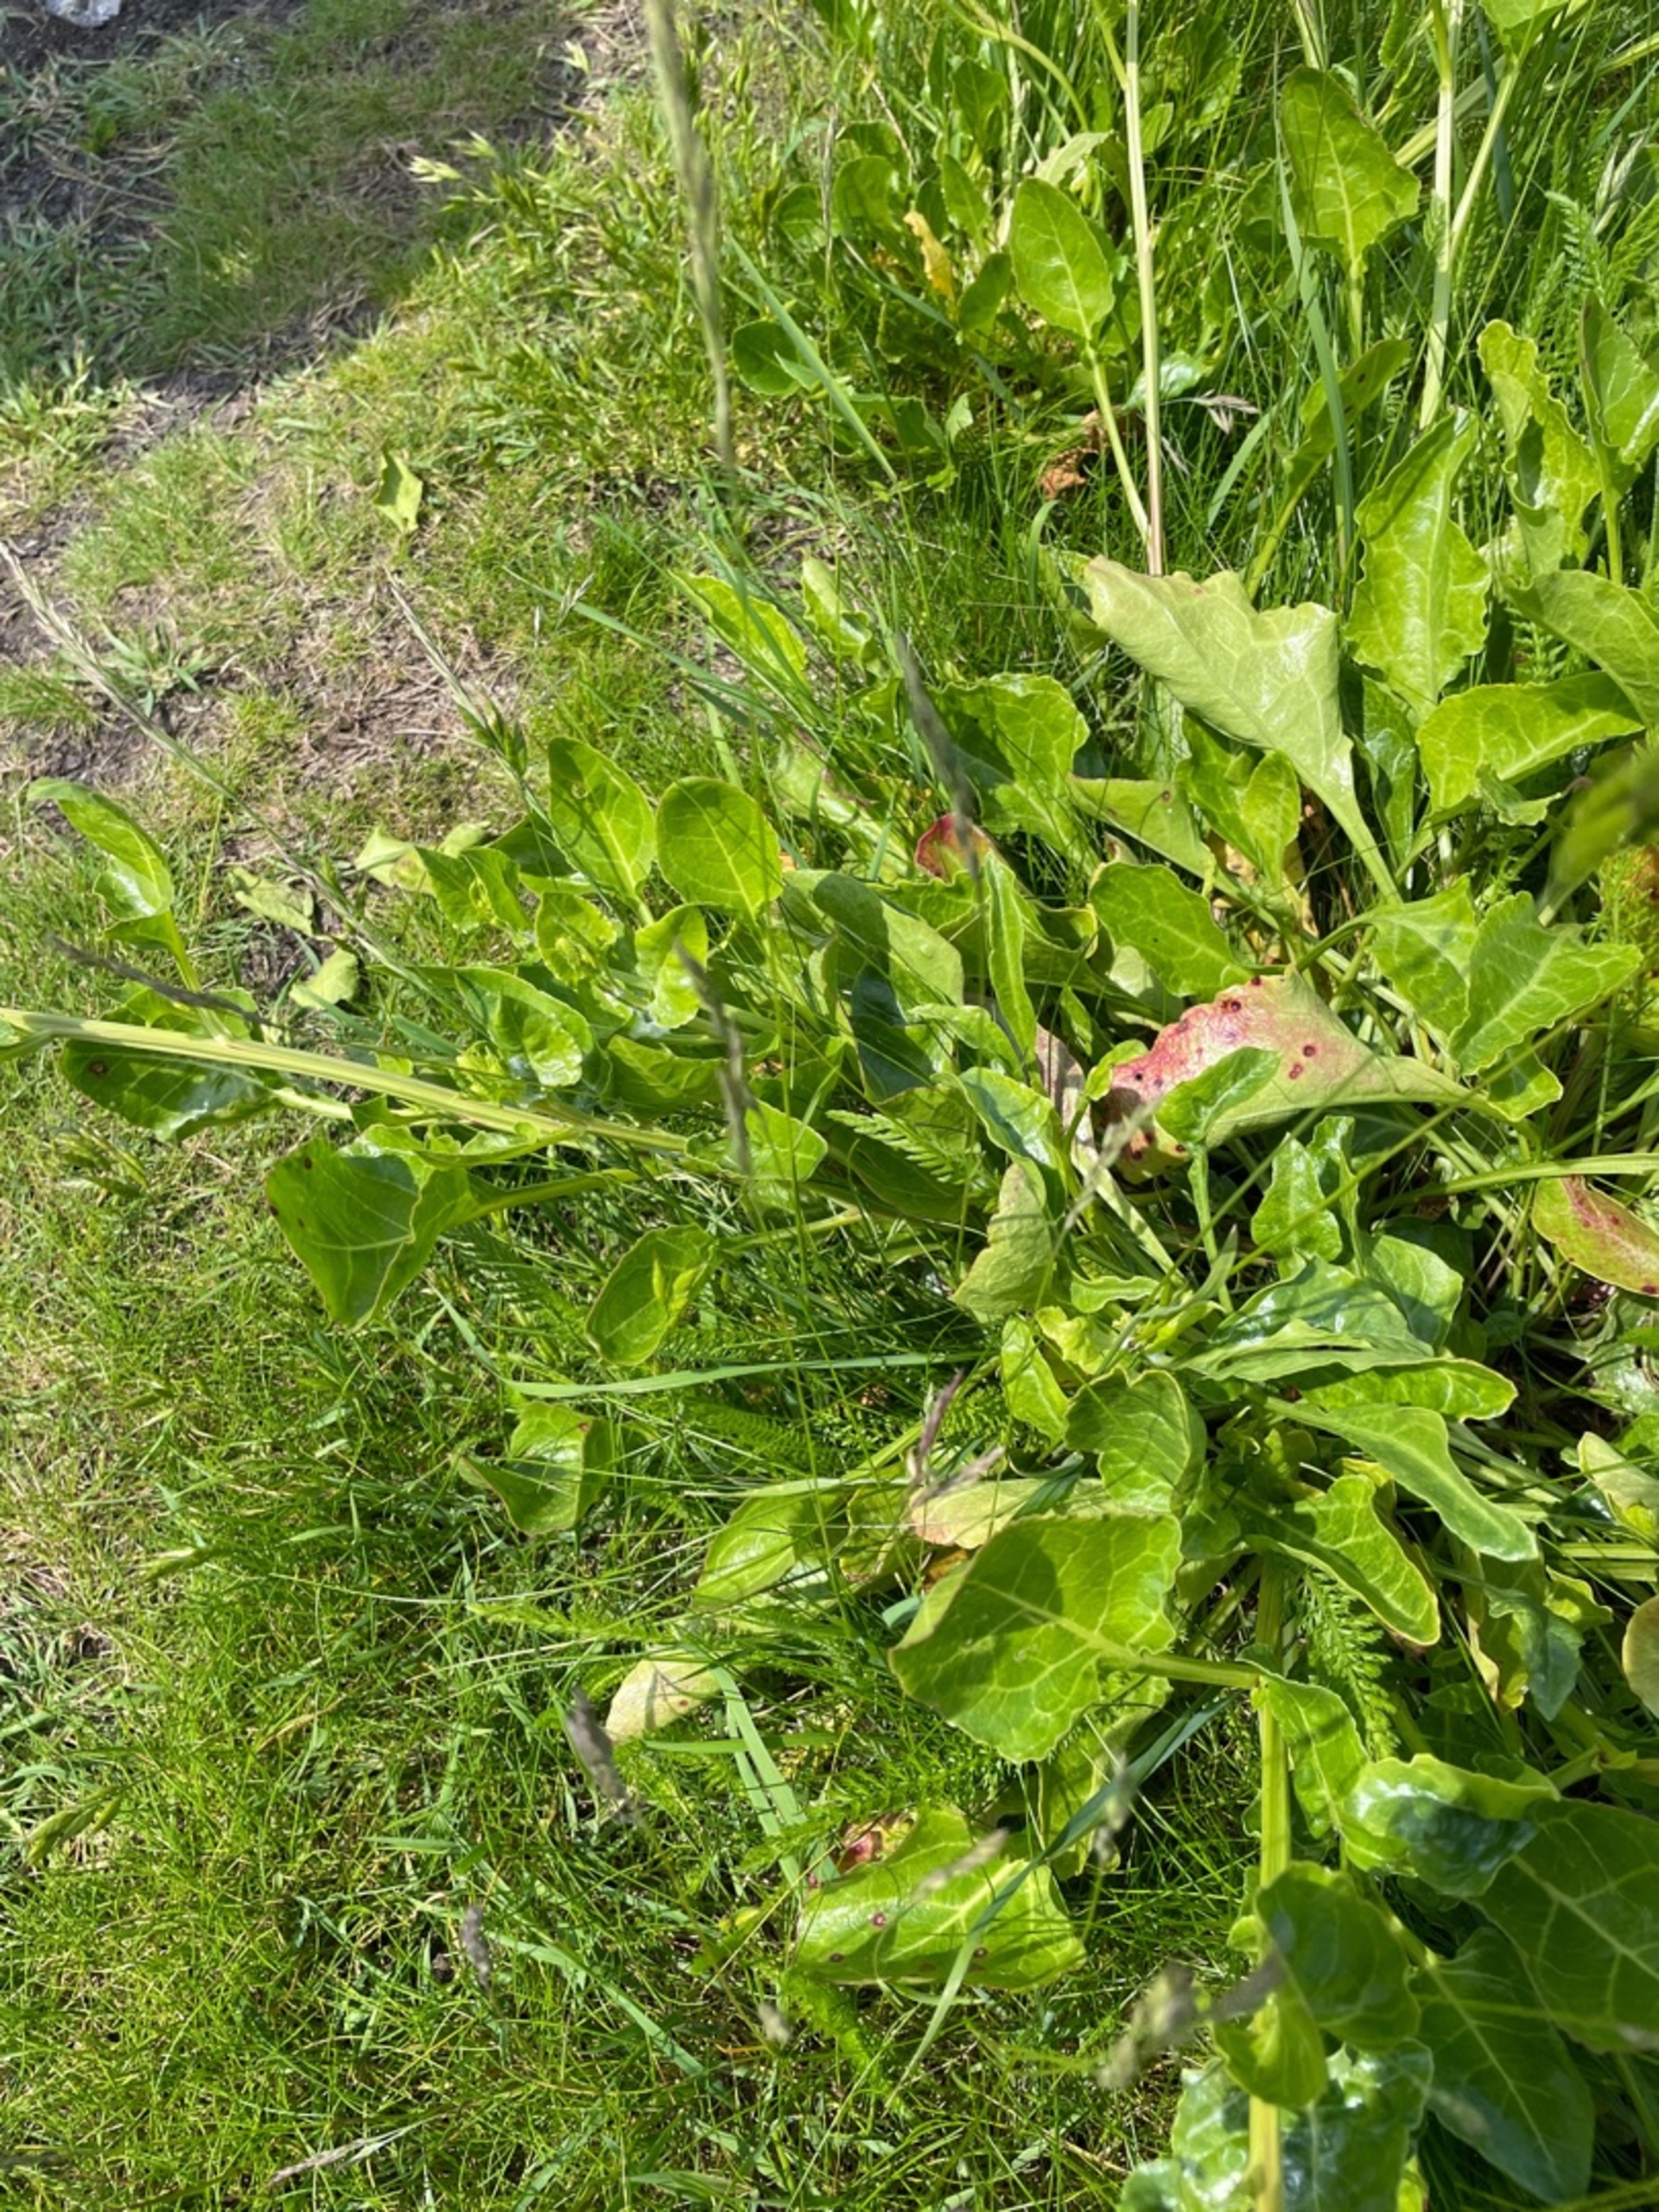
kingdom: Plantae
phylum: Tracheophyta
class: Magnoliopsida
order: Caryophyllales
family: Amaranthaceae
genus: Beta
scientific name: Beta maritima
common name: Strand-bede
